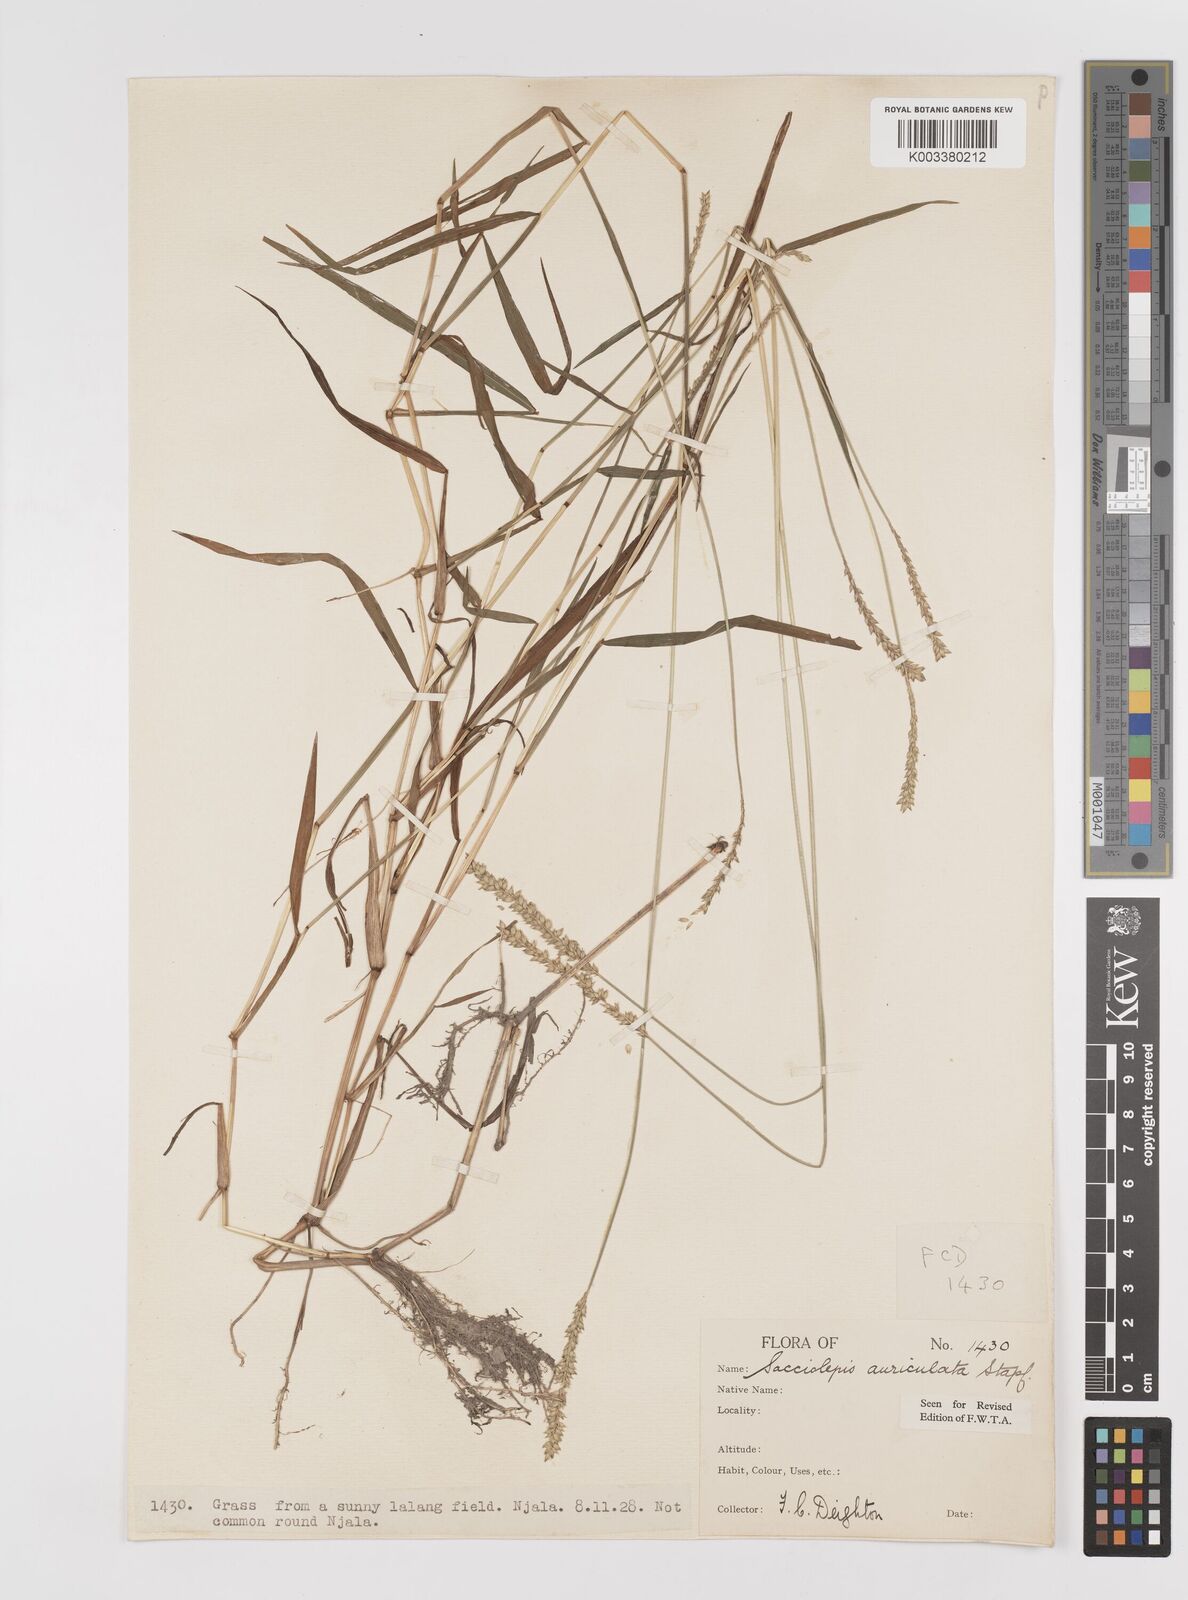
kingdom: Plantae
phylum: Tracheophyta
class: Liliopsida
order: Poales
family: Poaceae
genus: Sacciolepis
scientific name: Sacciolepis indica
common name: Glenwoodgrass
